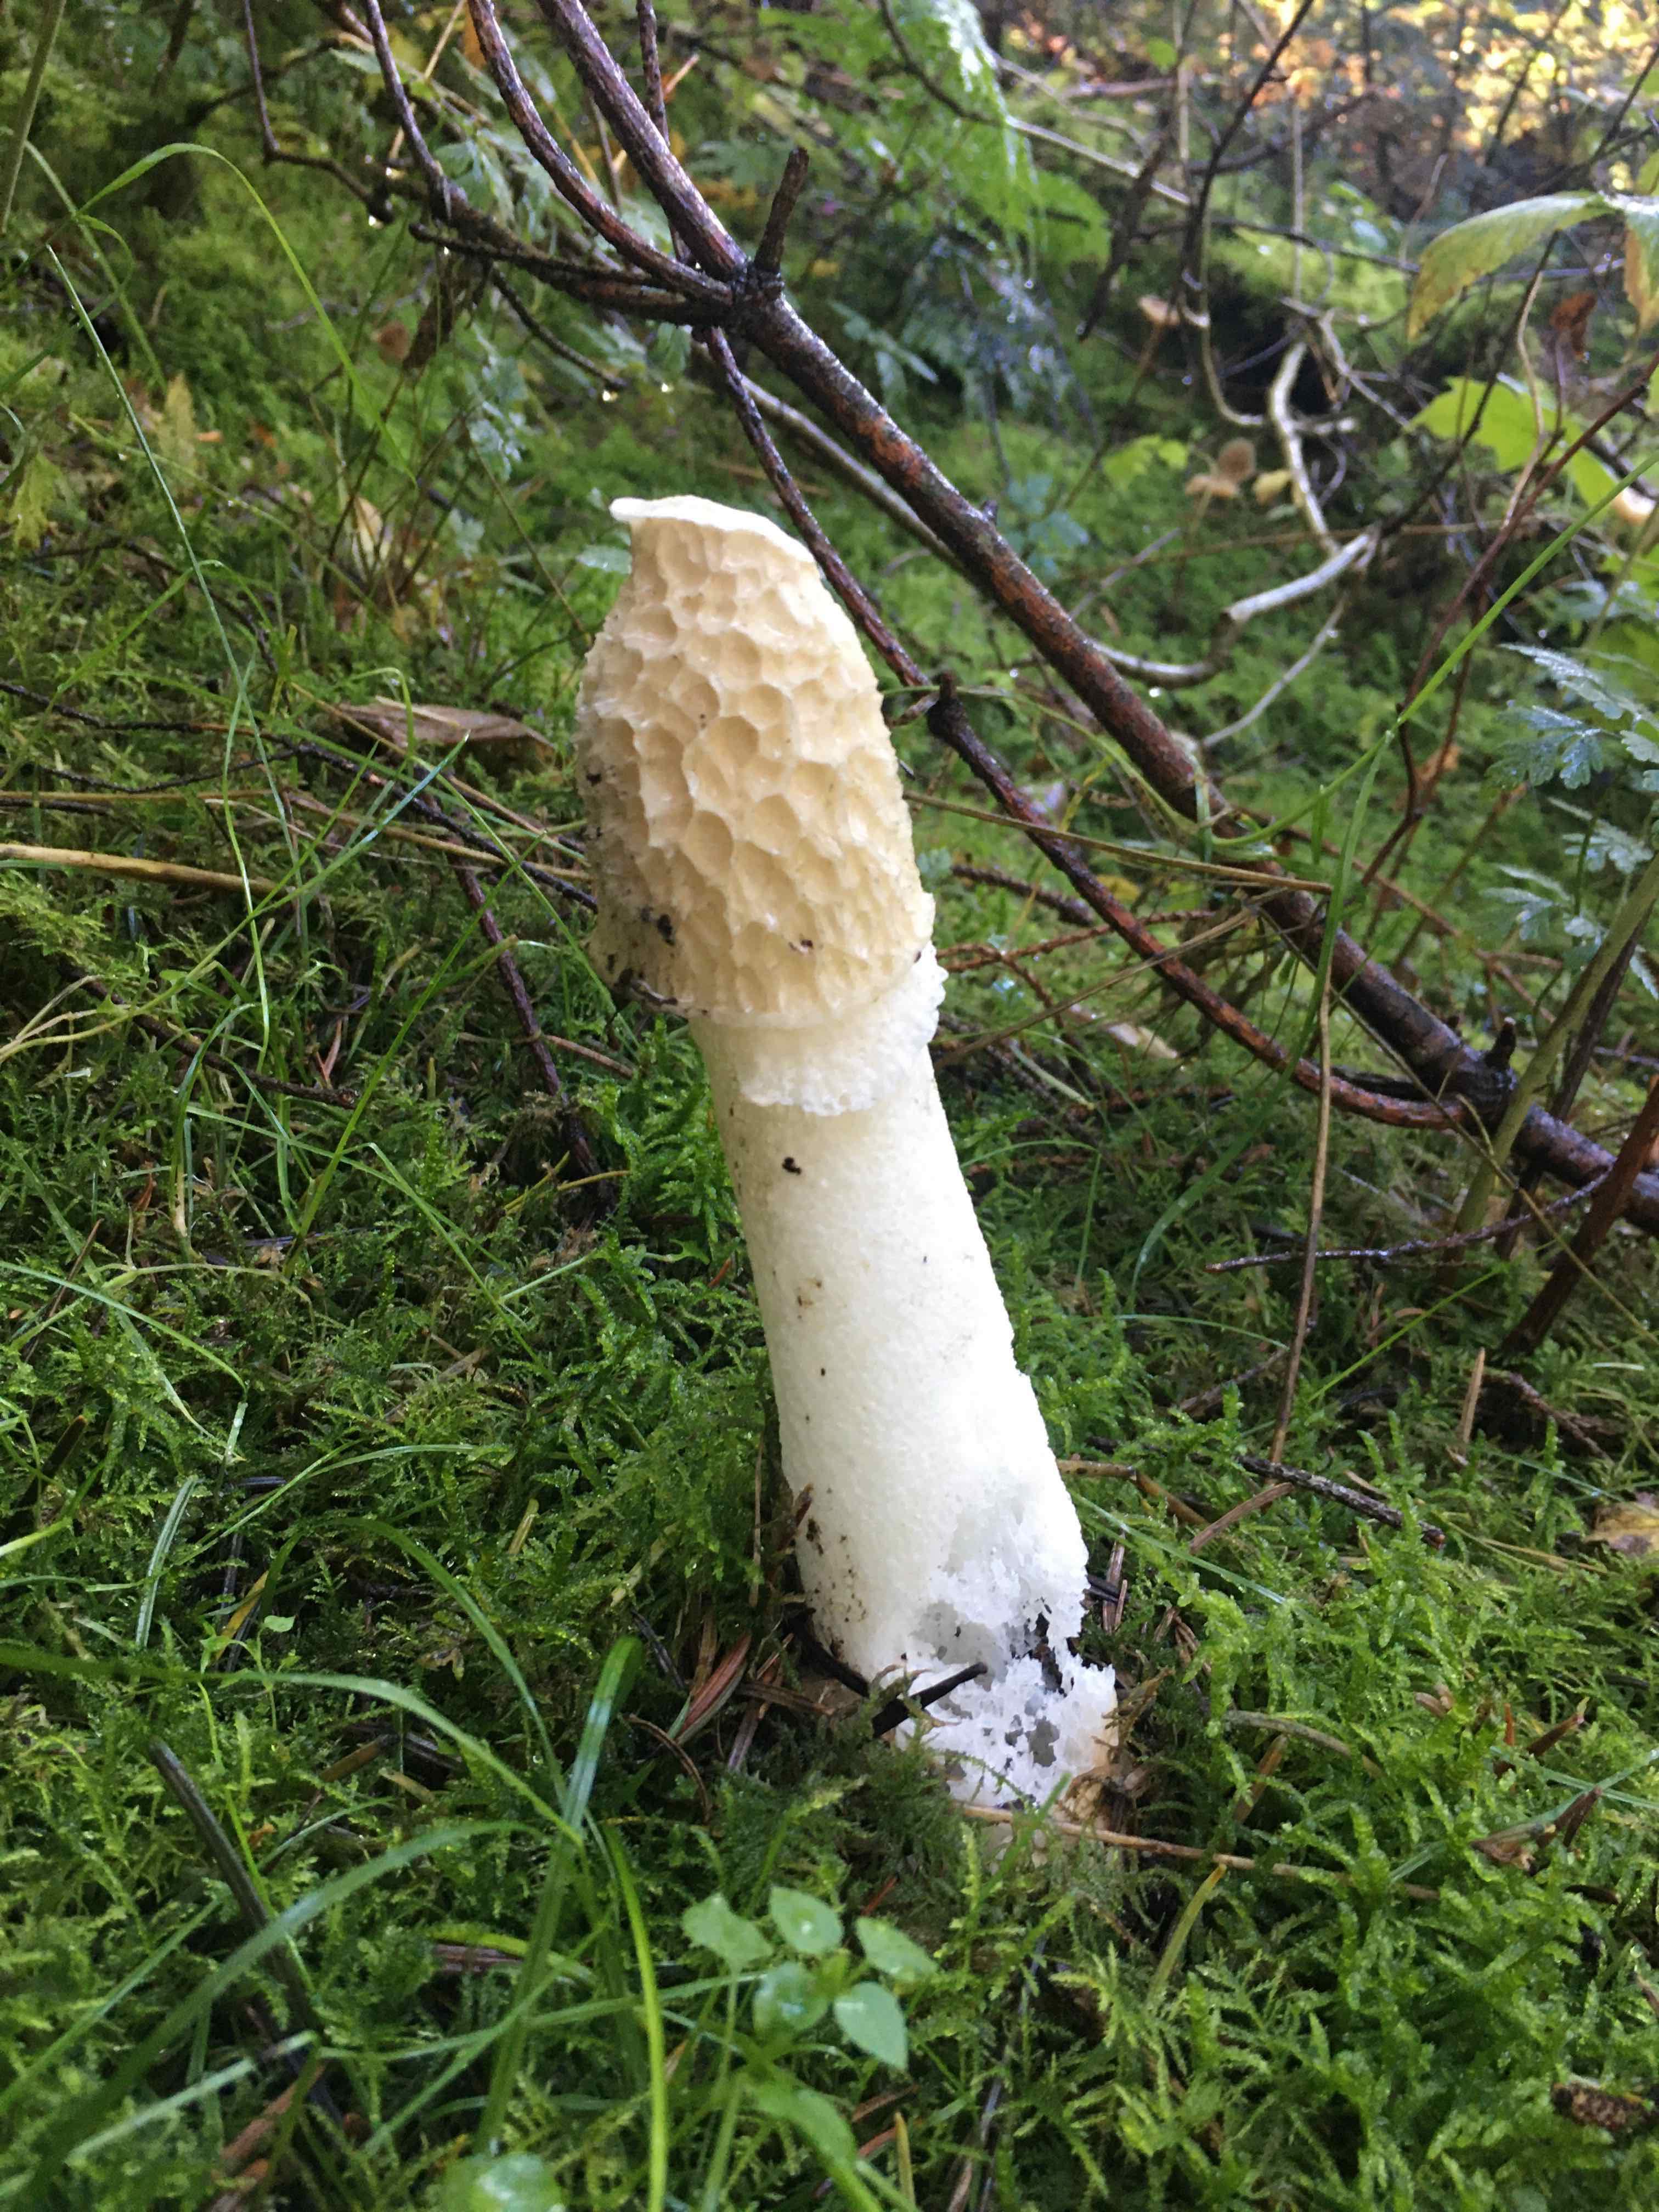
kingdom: Fungi
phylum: Basidiomycota
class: Agaricomycetes
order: Phallales
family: Phallaceae
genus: Phallus
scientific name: Phallus impudicus
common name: almindelig stinksvamp
